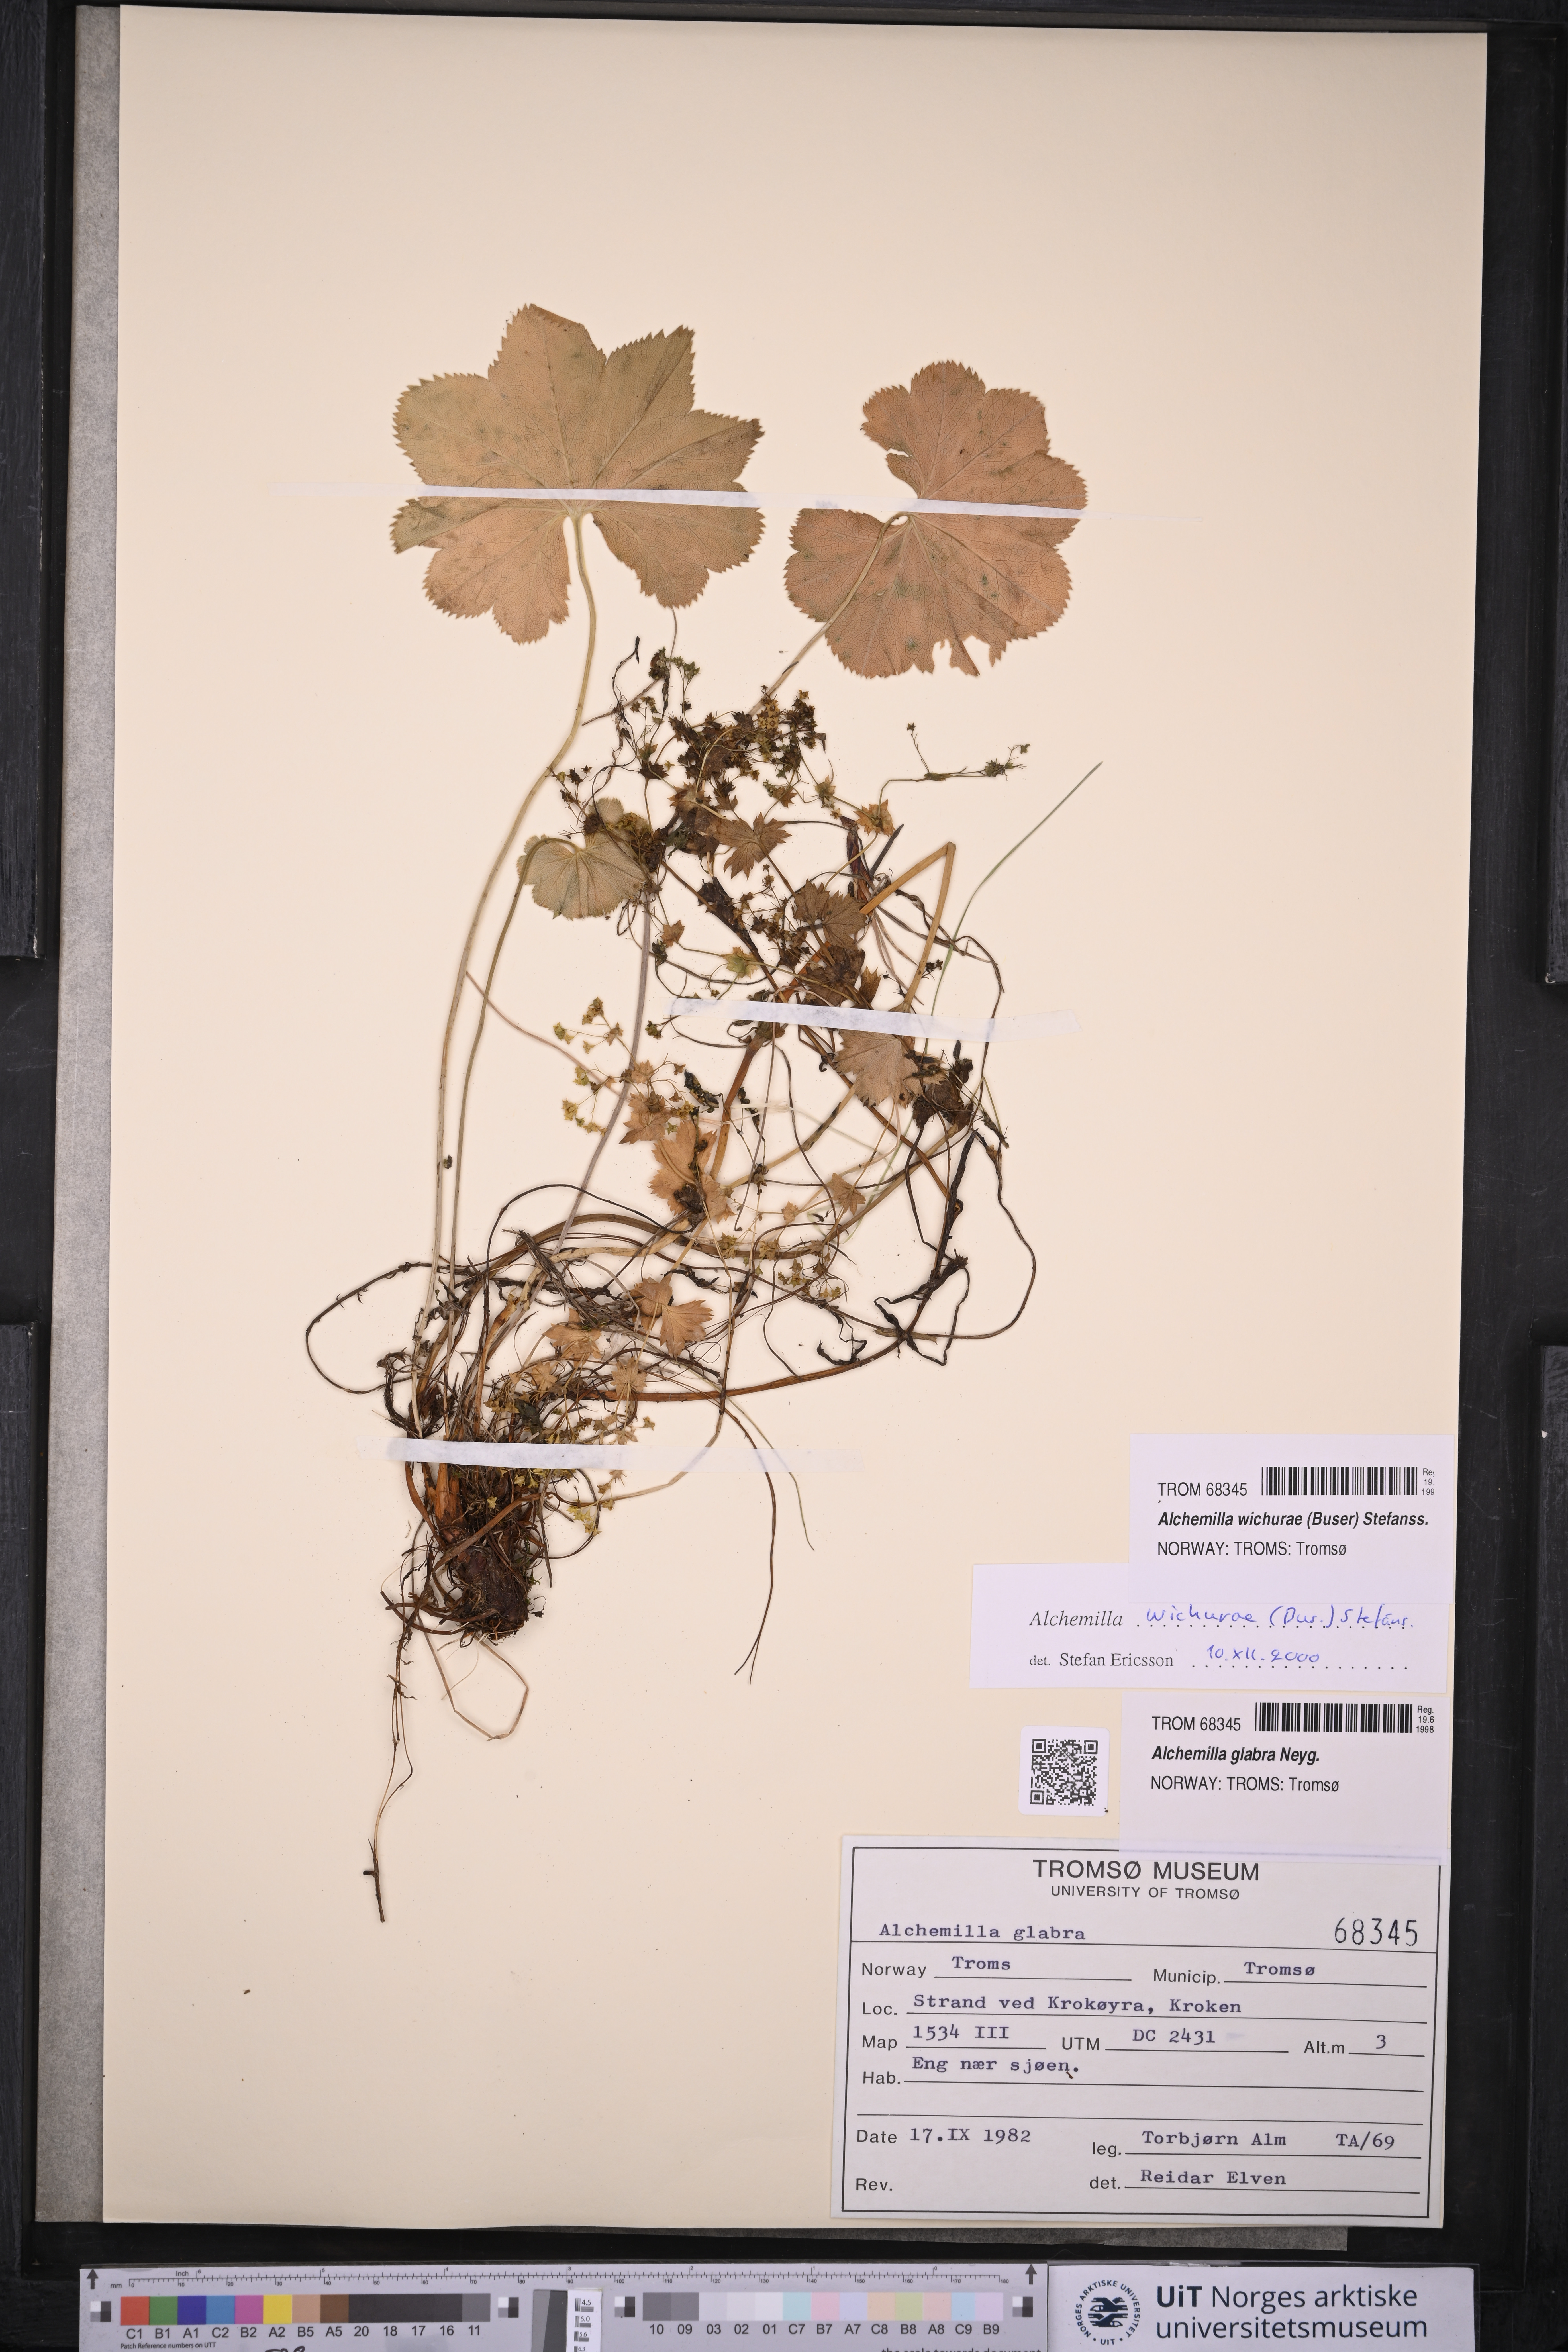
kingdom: Plantae
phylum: Tracheophyta
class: Magnoliopsida
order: Rosales
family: Rosaceae
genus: Alchemilla
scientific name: Alchemilla wichurae
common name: Rock lady's mantle
